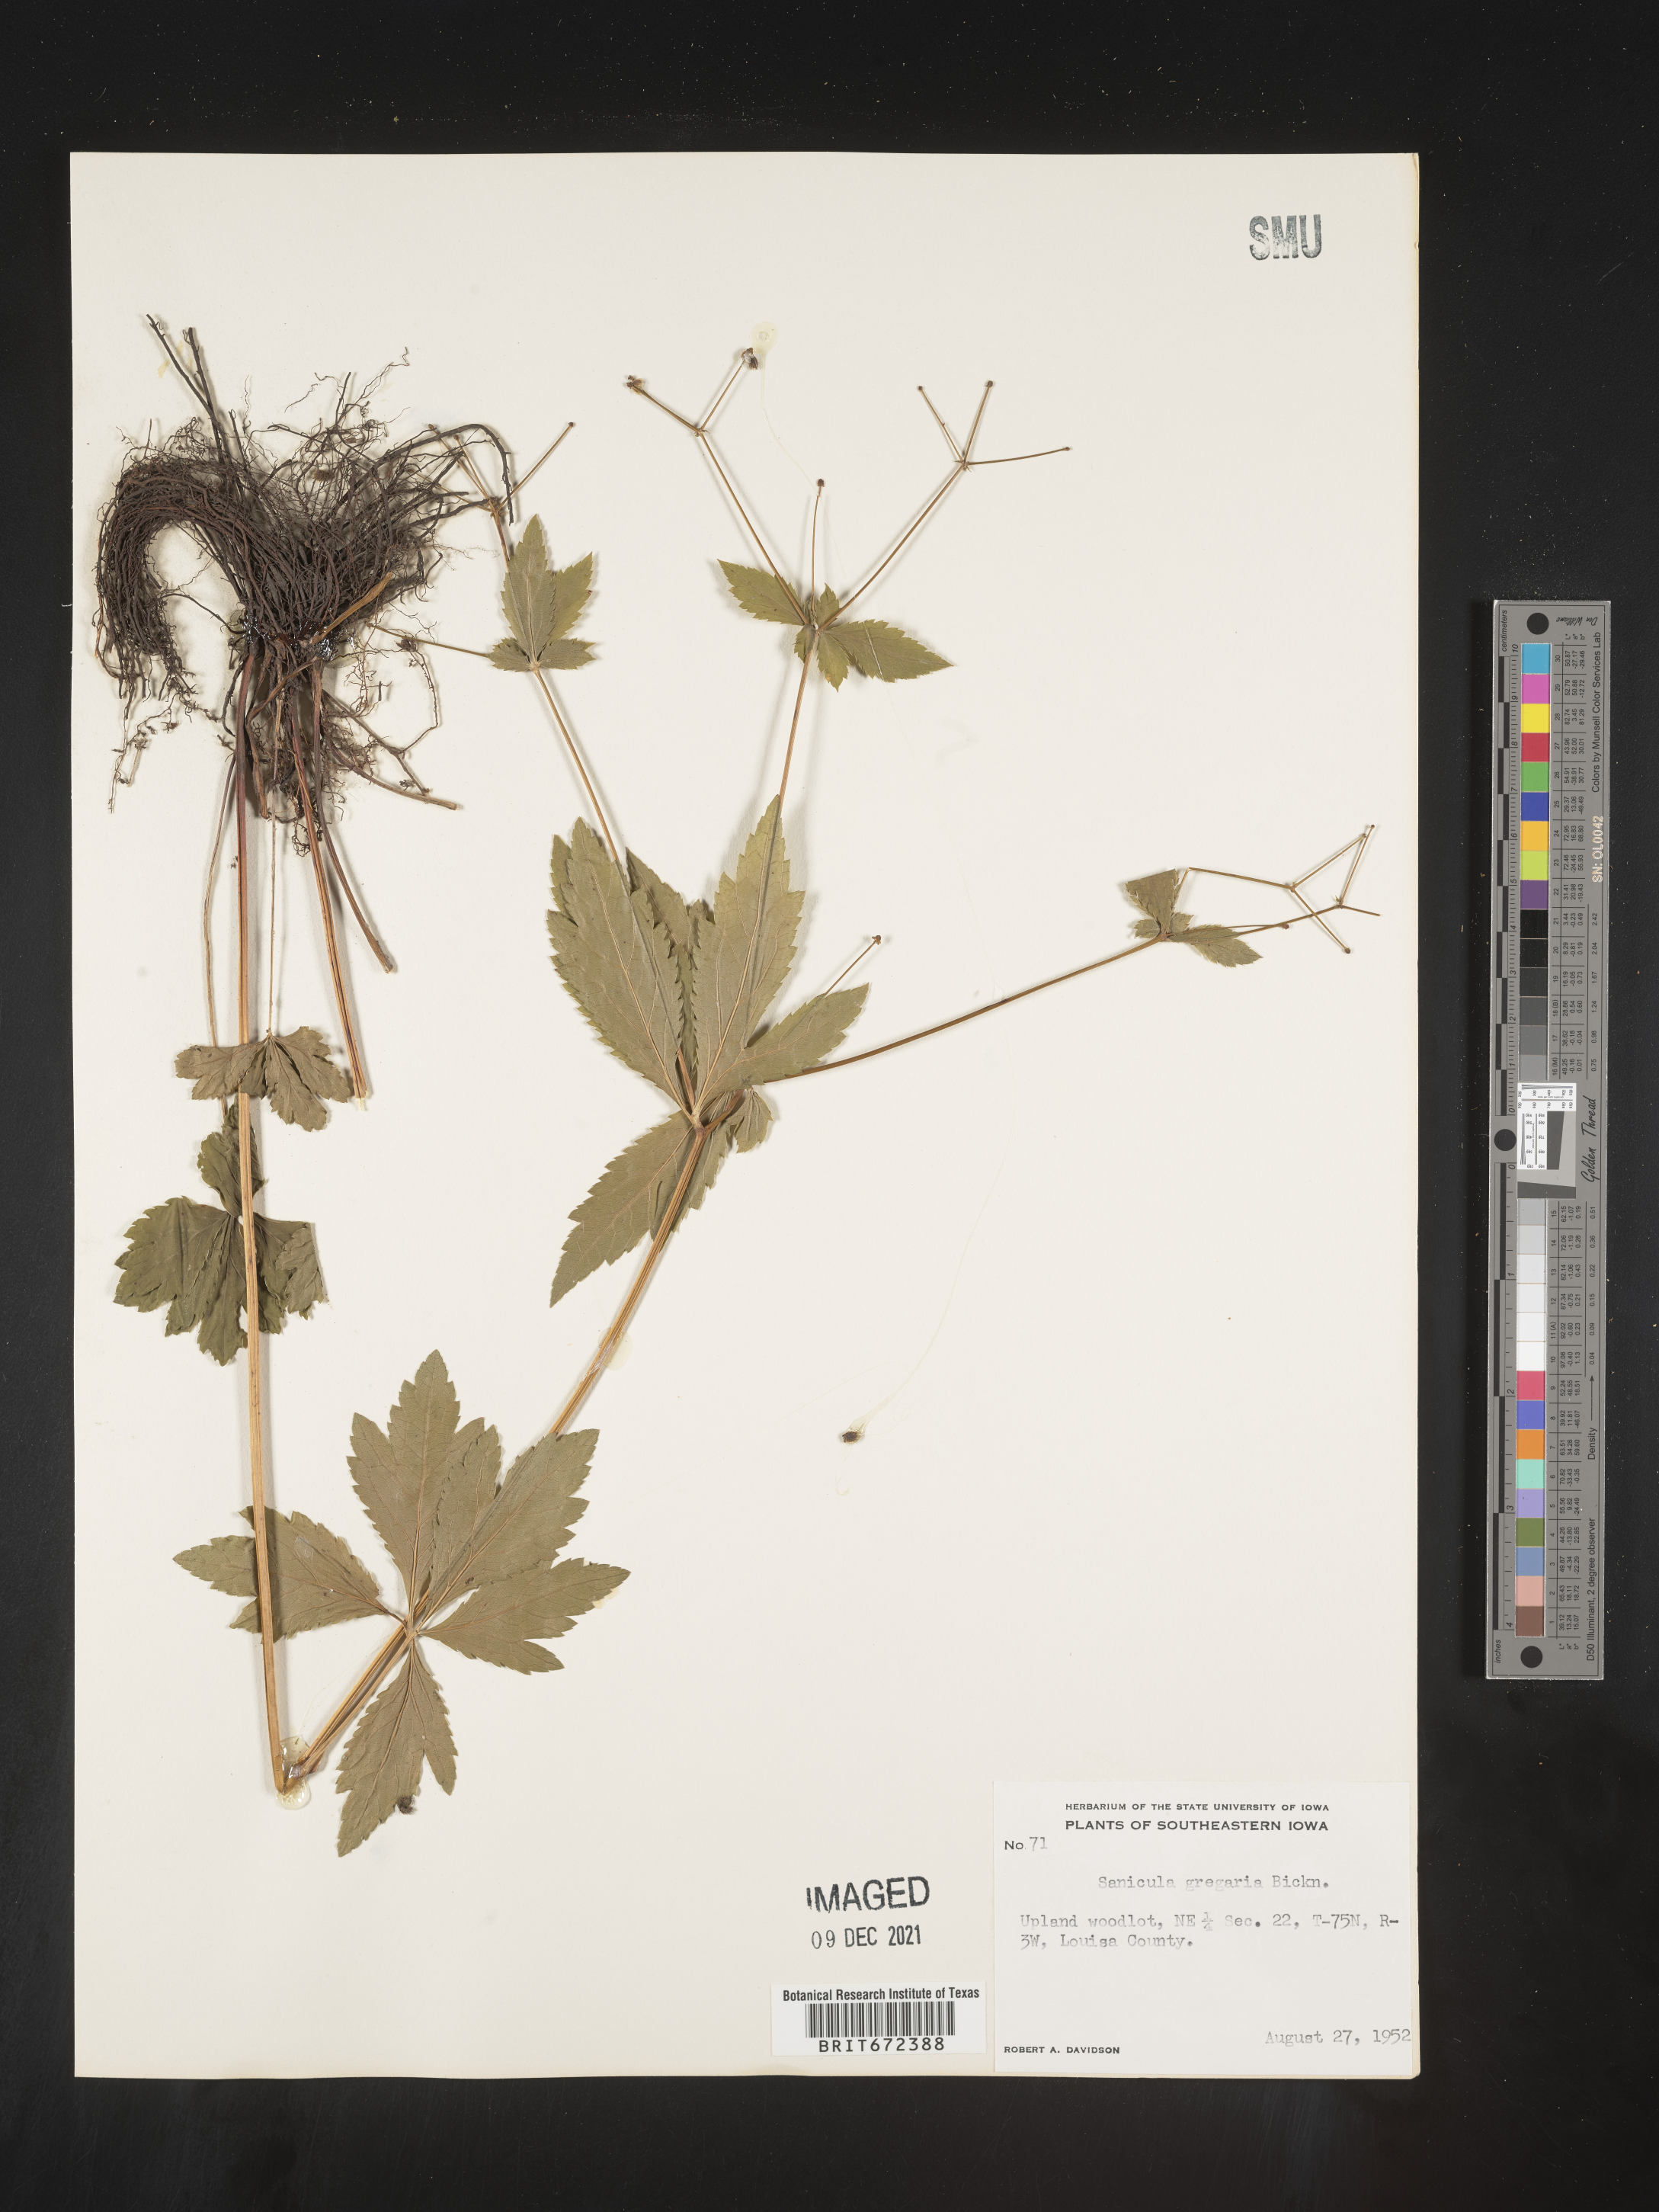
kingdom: Plantae
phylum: Tracheophyta
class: Magnoliopsida
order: Apiales
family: Apiaceae
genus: Sanicula
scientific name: Sanicula odorata
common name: Cluster sanicle
